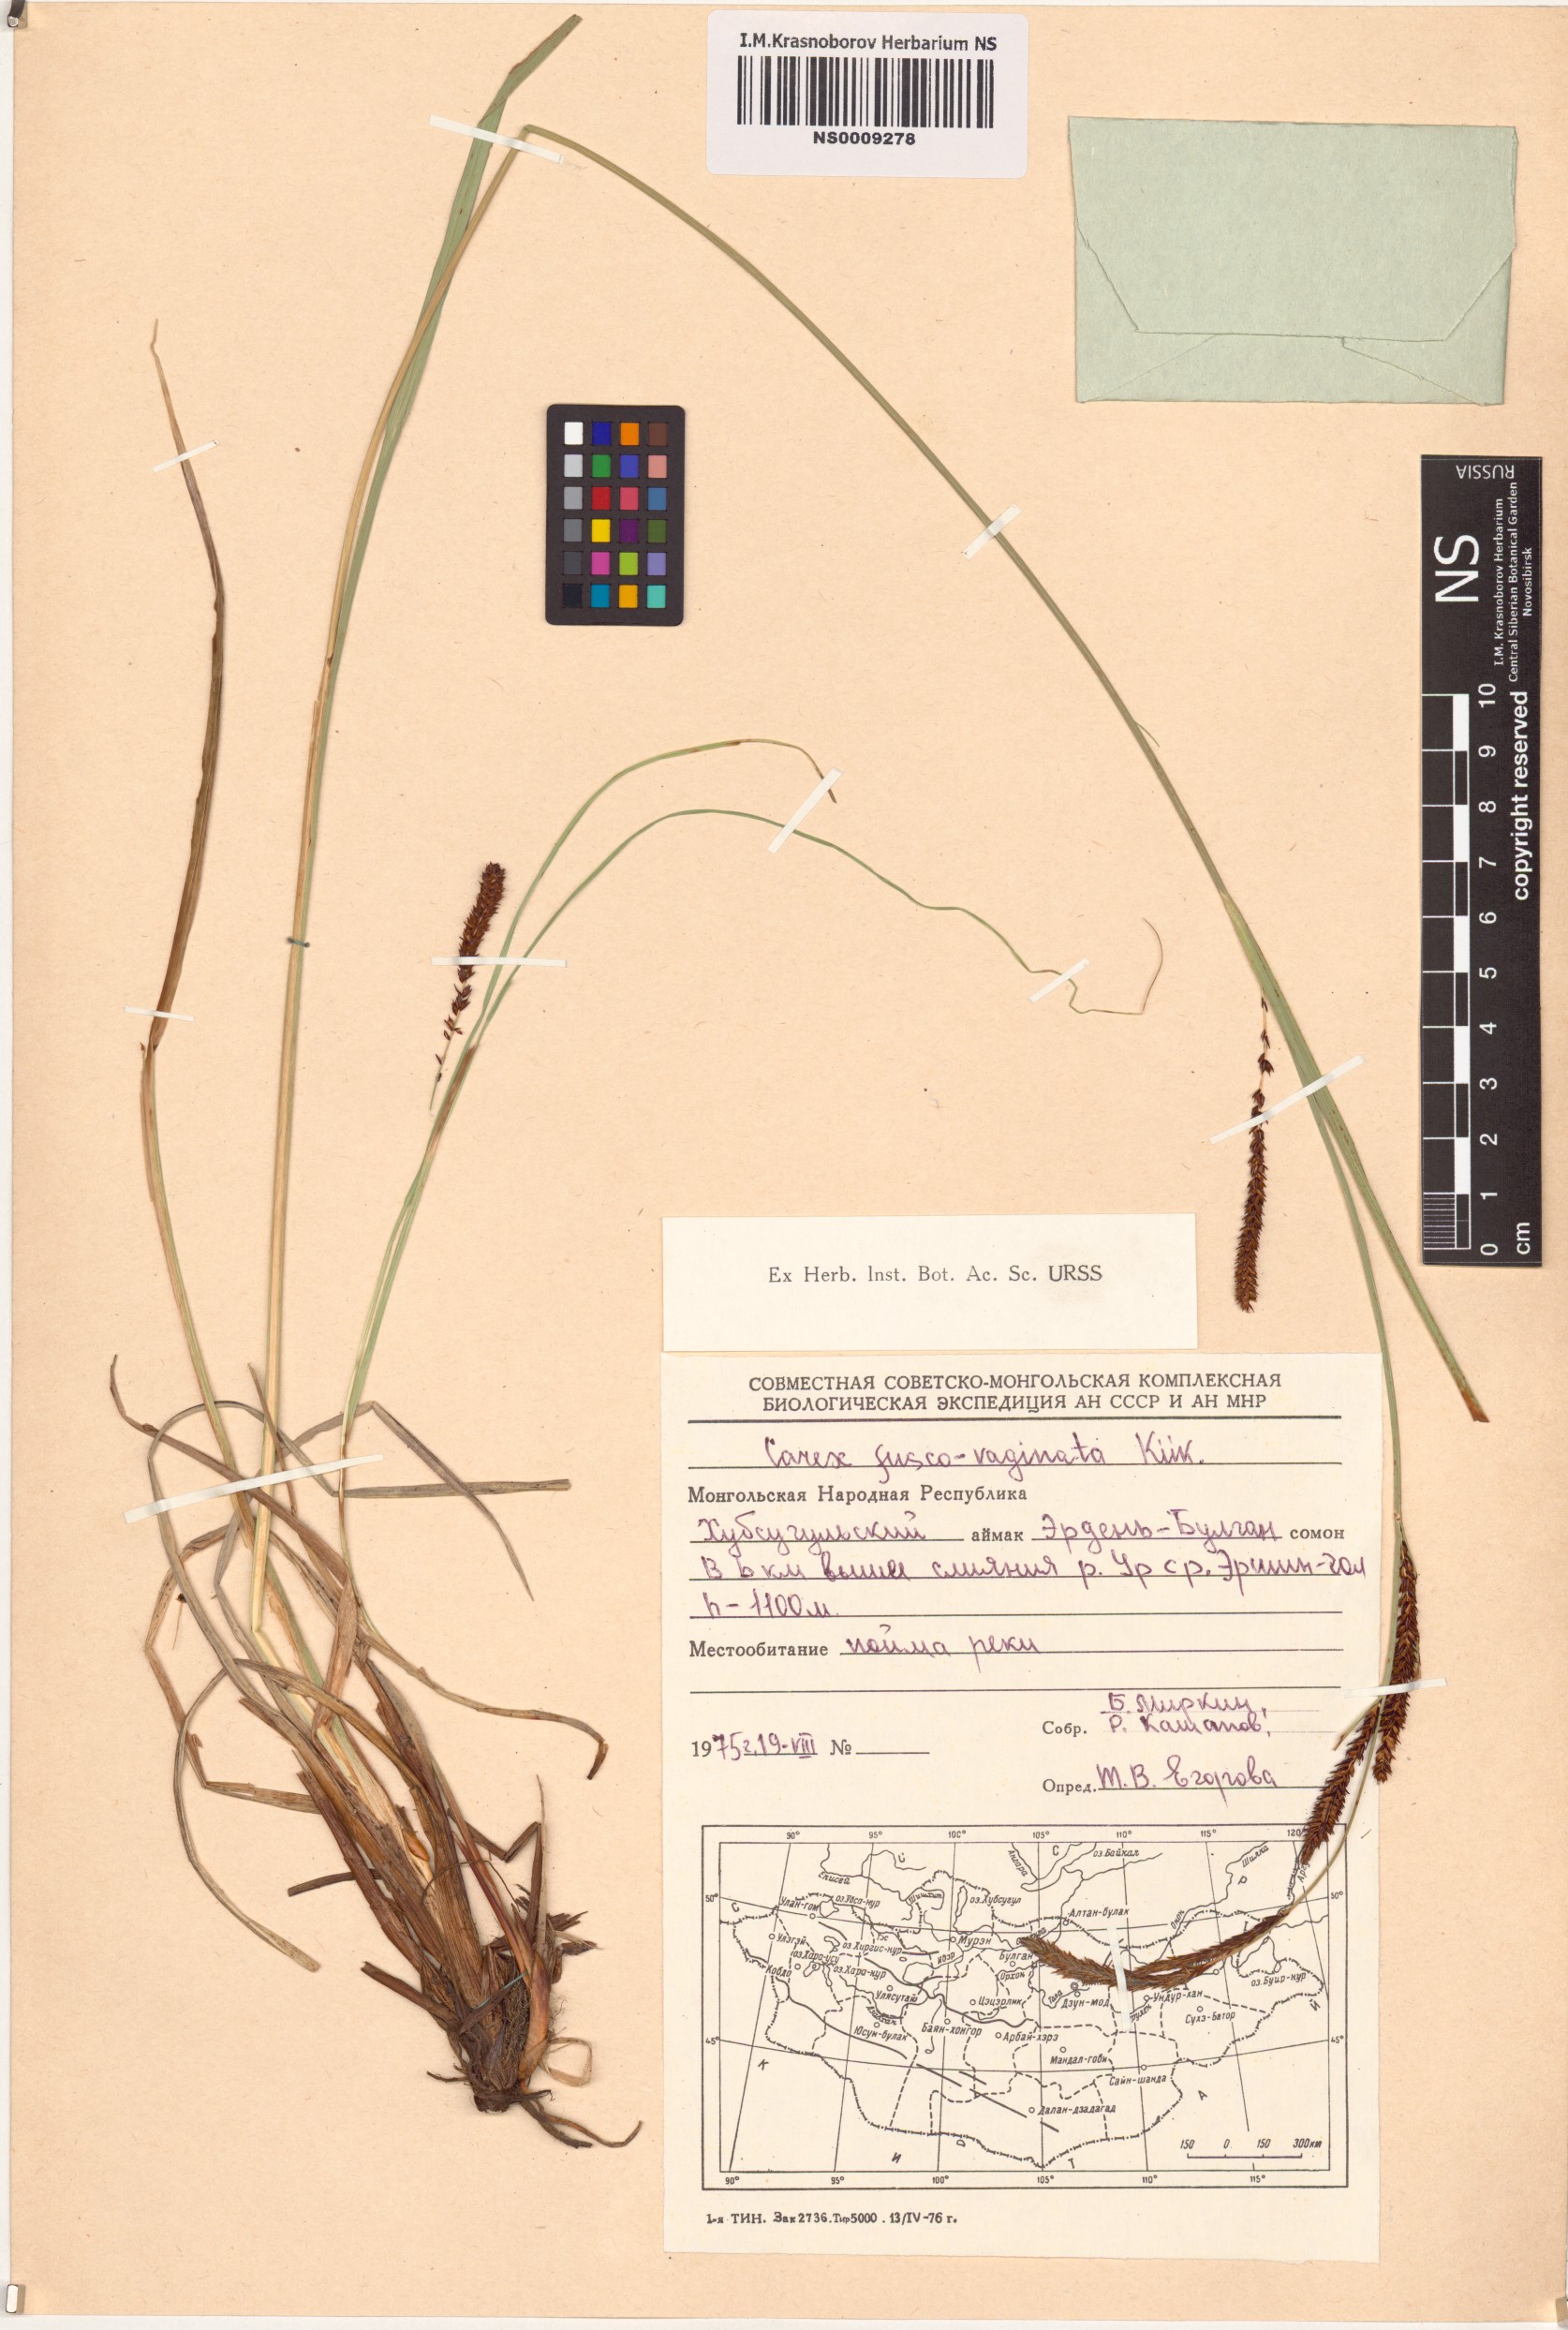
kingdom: Plantae
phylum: Tracheophyta
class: Liliopsida
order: Poales
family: Cyperaceae
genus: Carex
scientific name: Carex acuta
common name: Slender tufted-sedge
